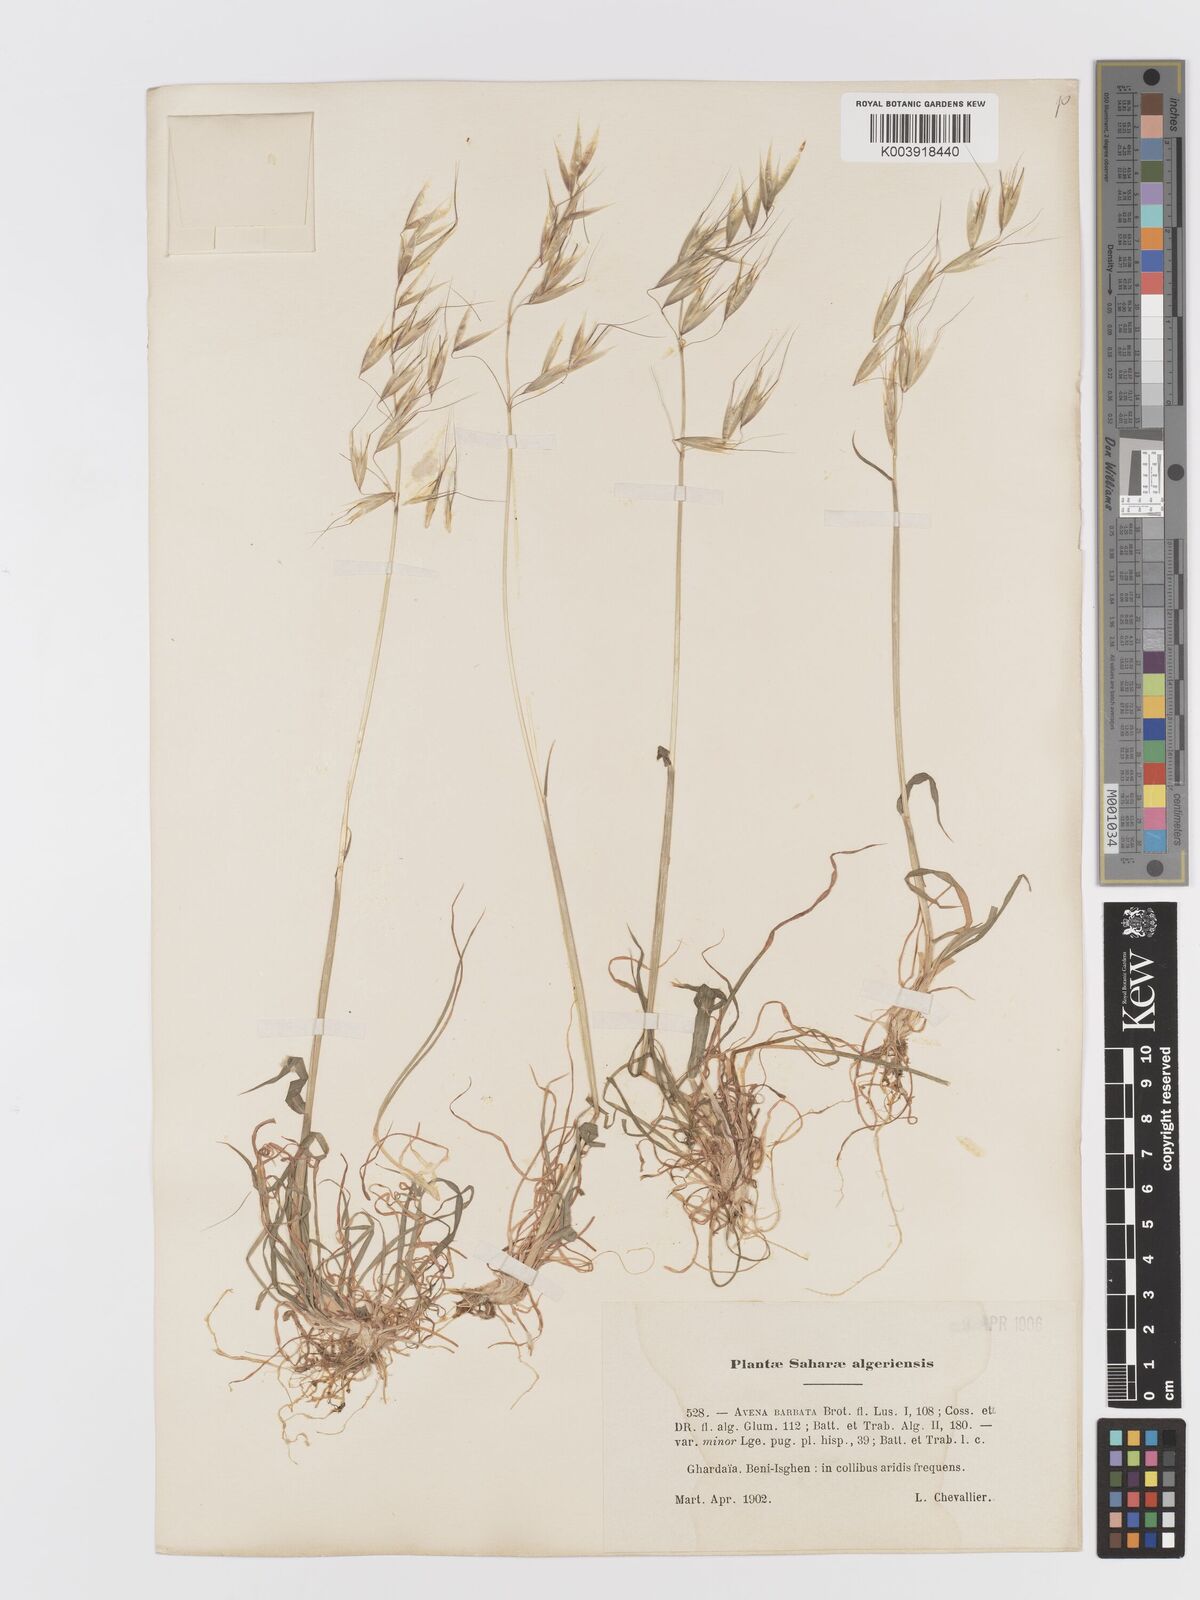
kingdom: Plantae
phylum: Tracheophyta
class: Liliopsida
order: Poales
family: Poaceae
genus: Avena
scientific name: Avena
